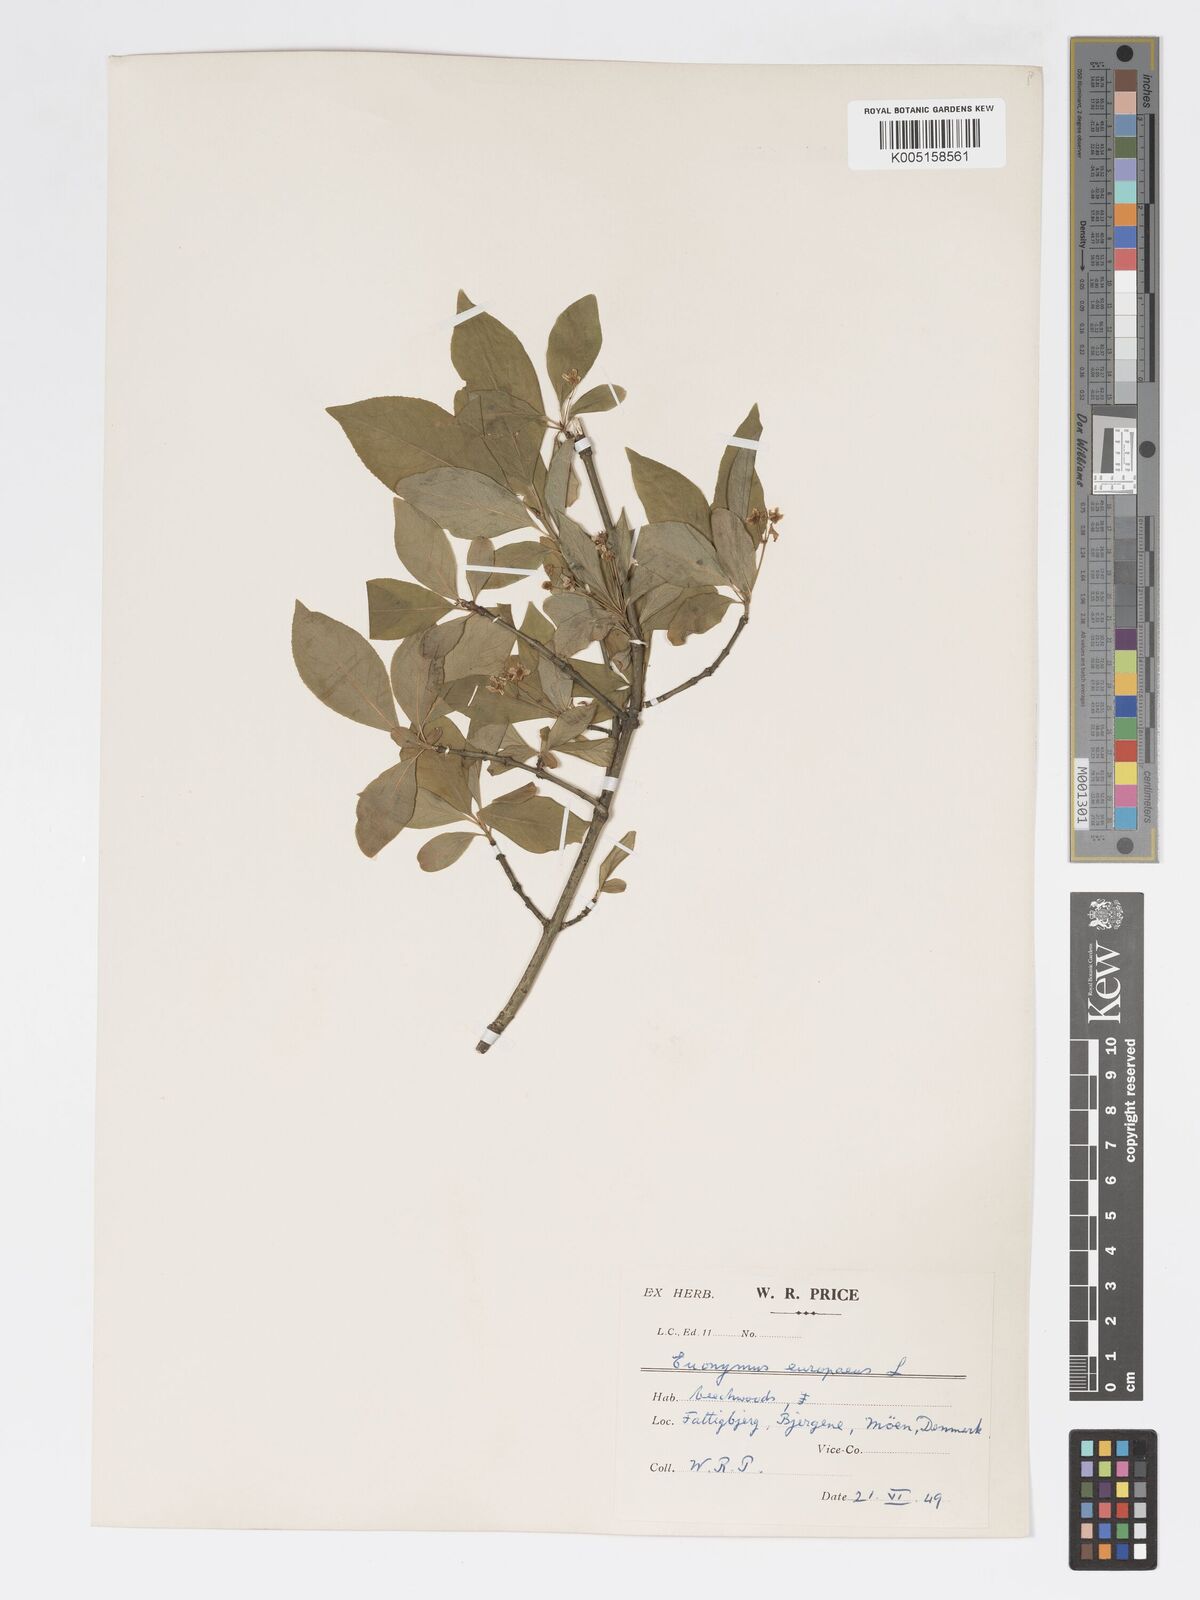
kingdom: Plantae
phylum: Tracheophyta
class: Magnoliopsida
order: Celastrales
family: Celastraceae
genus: Euonymus
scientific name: Euonymus europaeus
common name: Spindle
